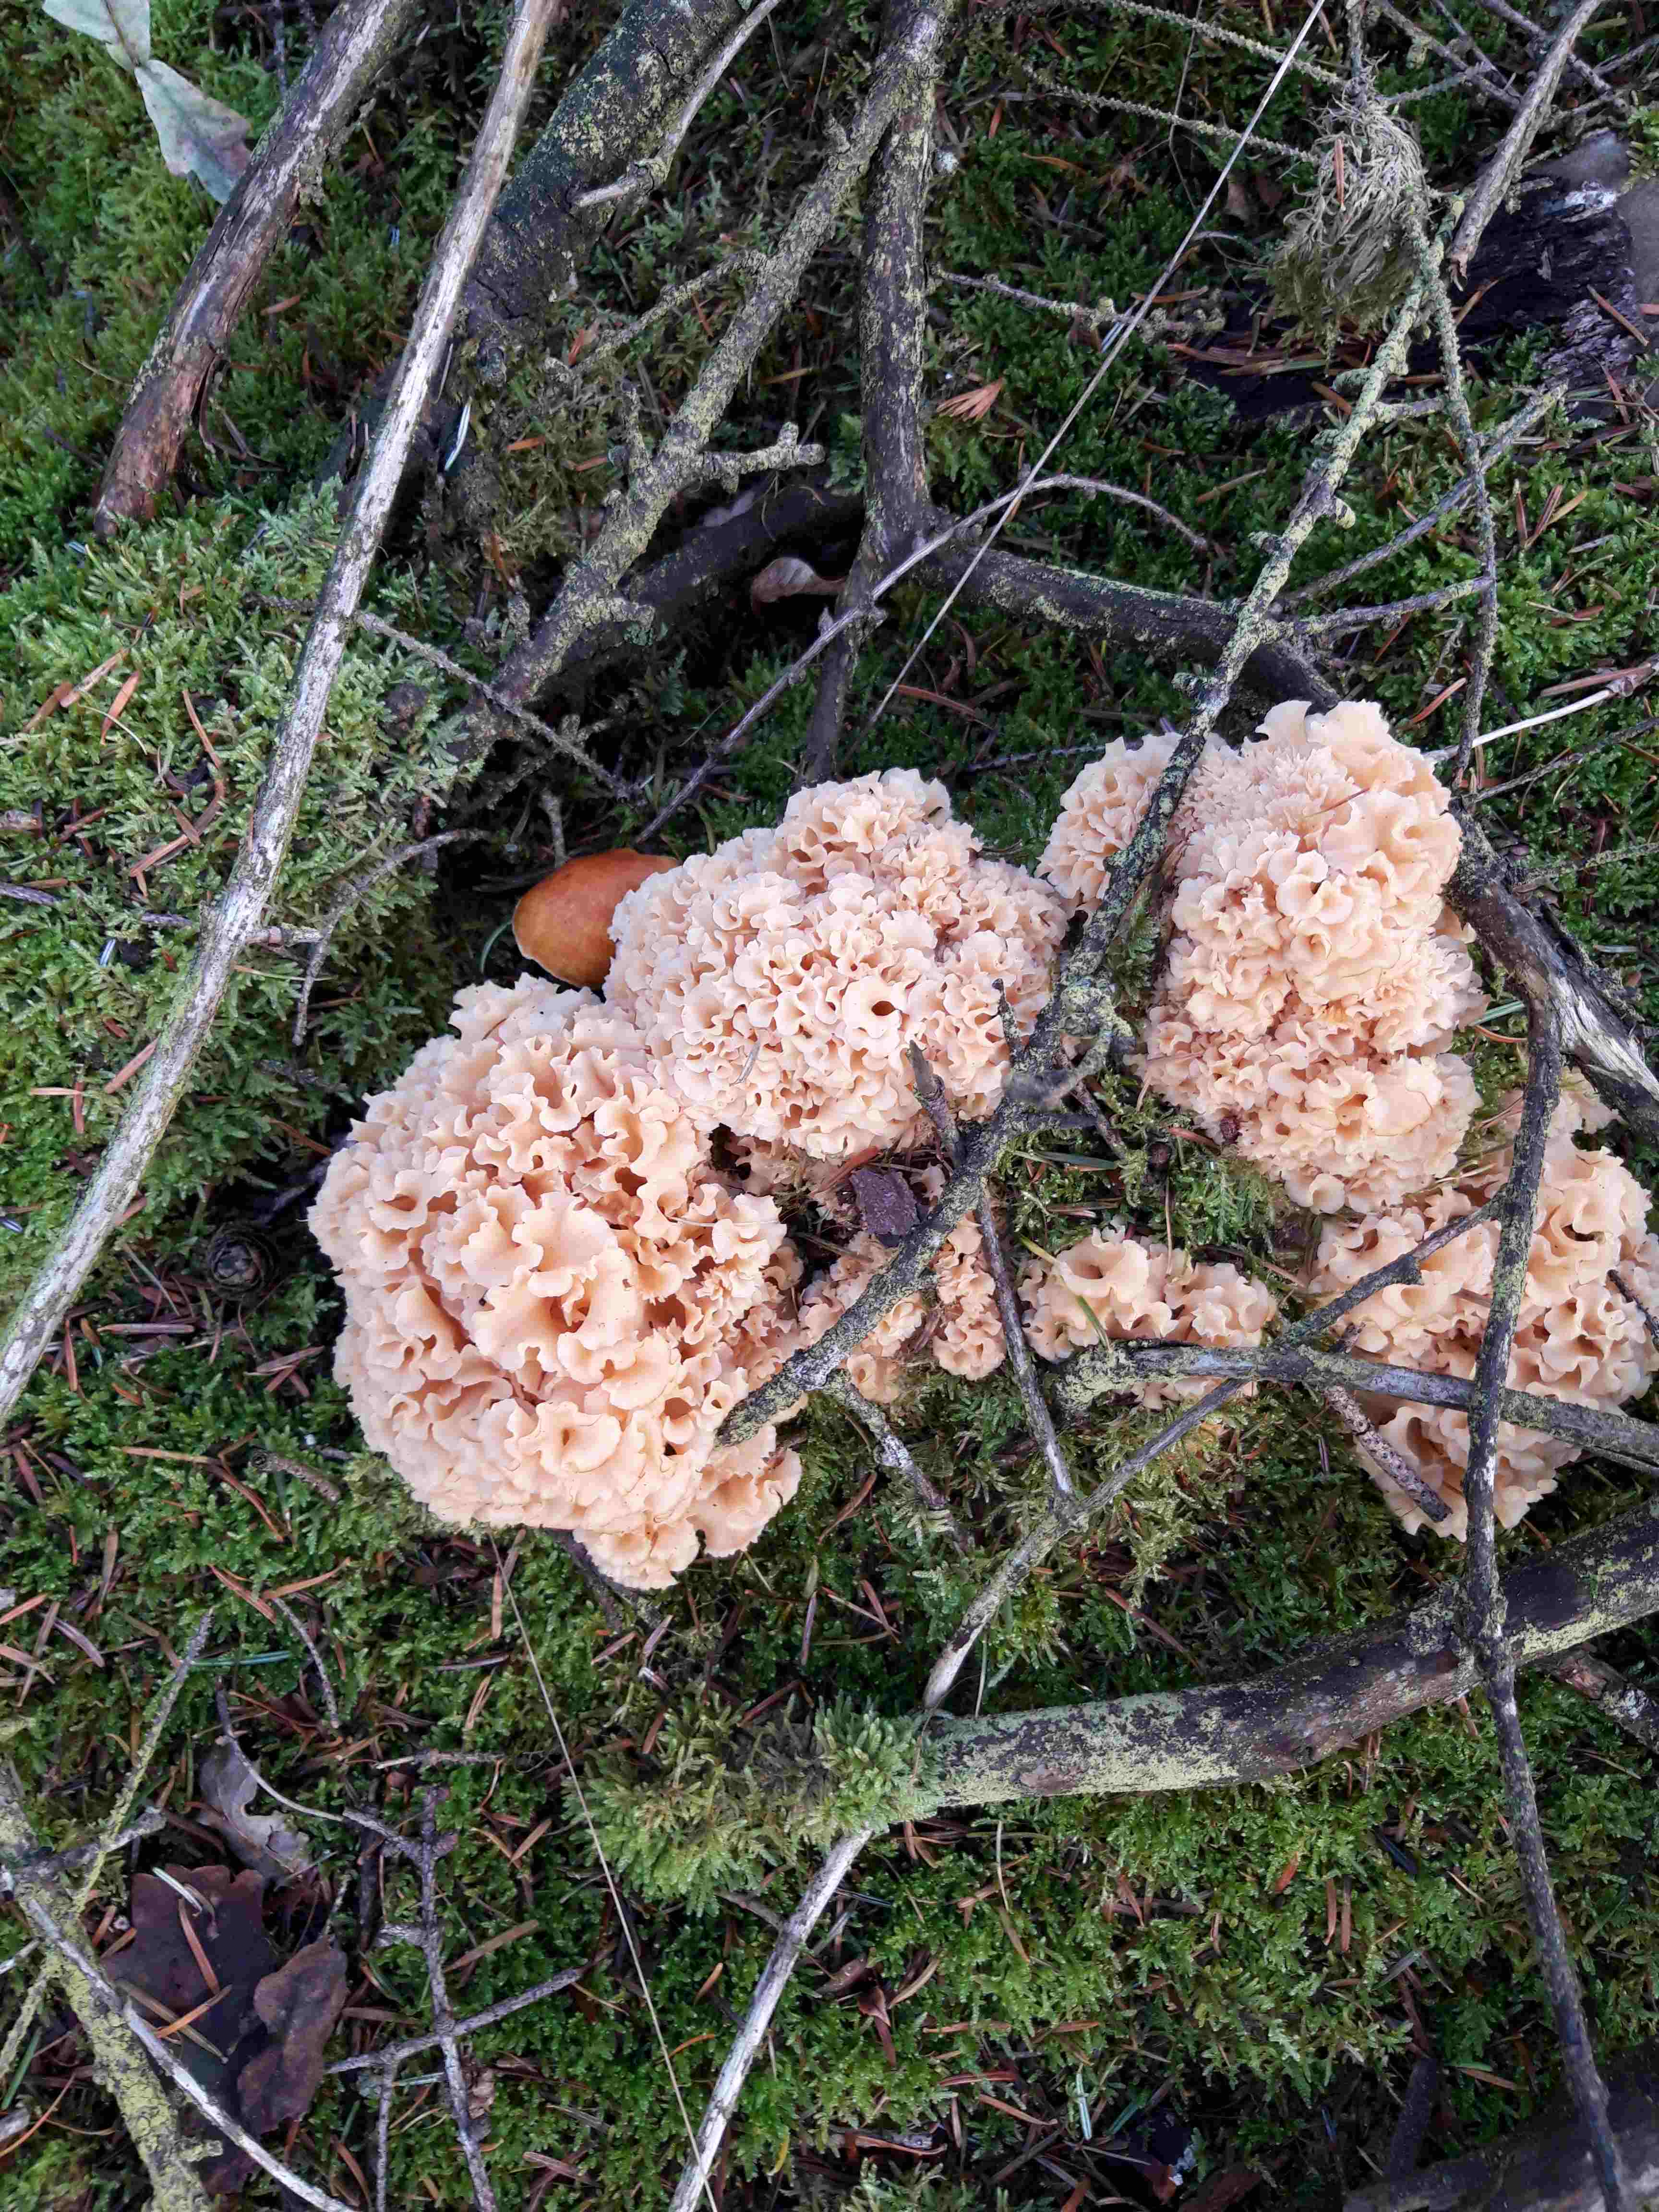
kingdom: Fungi
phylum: Basidiomycota
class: Agaricomycetes
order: Polyporales
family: Sparassidaceae
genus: Sparassis
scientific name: Sparassis crispa
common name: kruset blomkålssvamp
